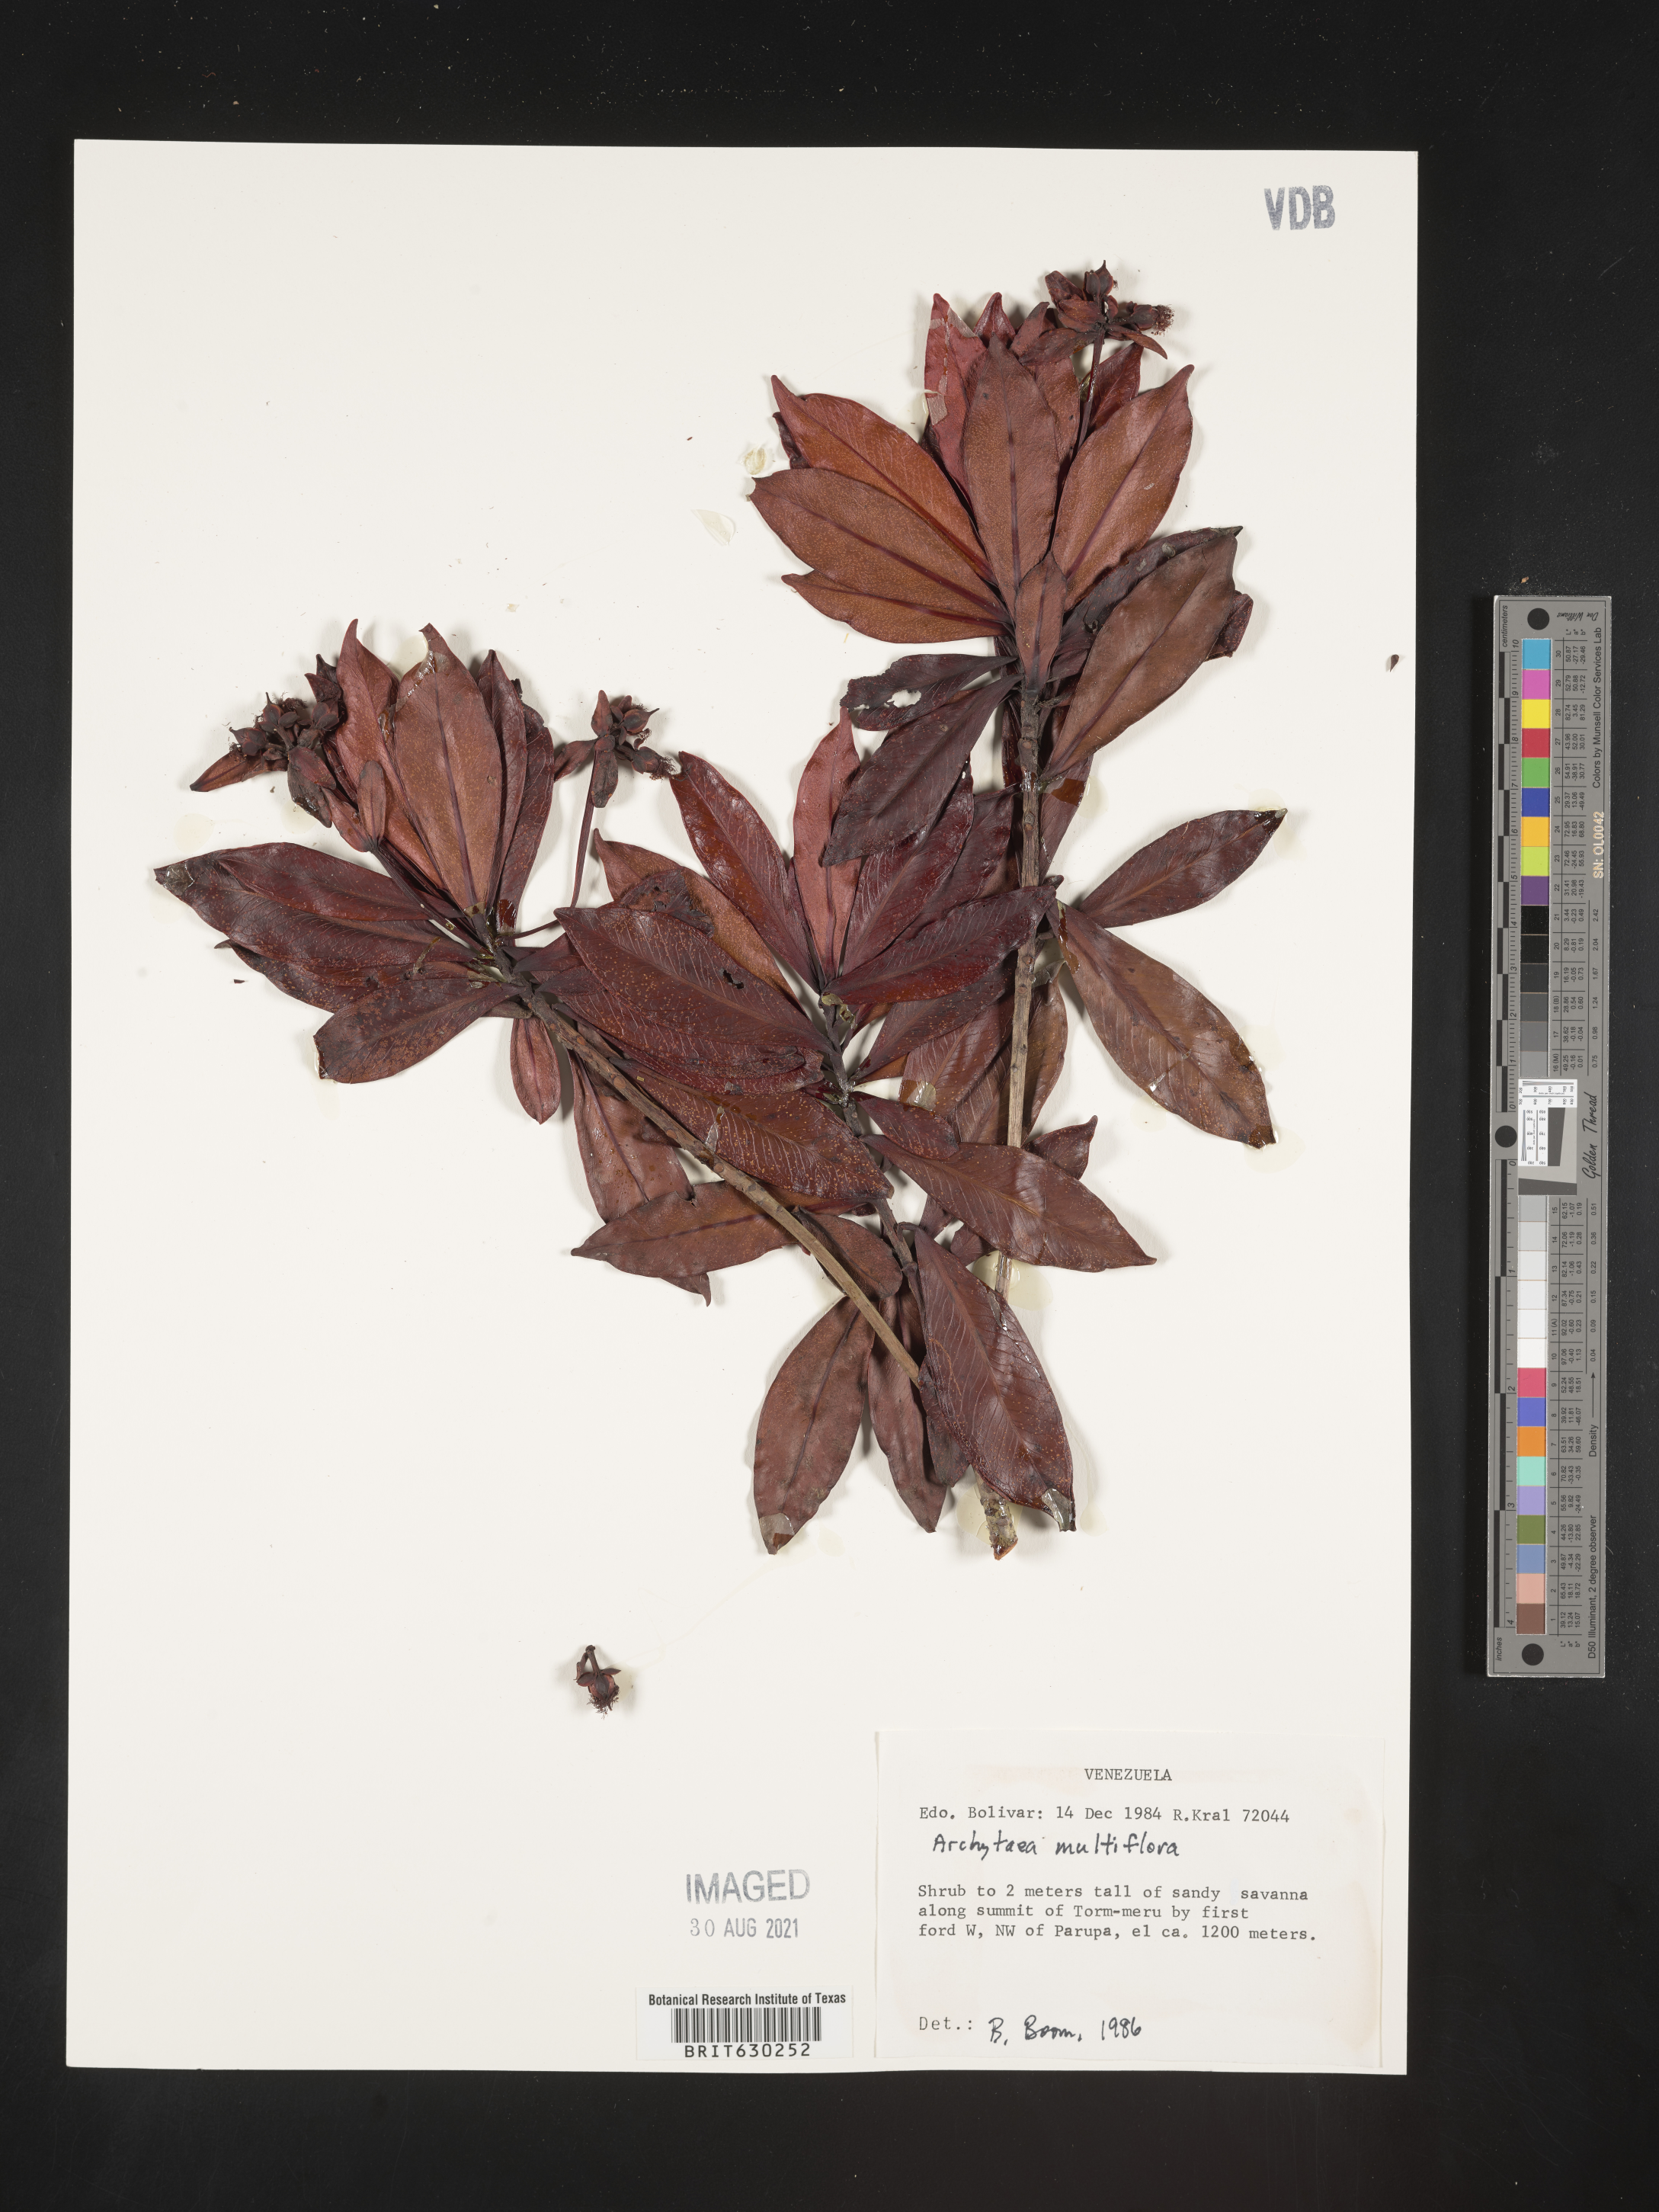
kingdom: Plantae
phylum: Tracheophyta
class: Magnoliopsida
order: Malpighiales
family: Bonnetiaceae
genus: Archytaea
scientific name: Archytaea triflora
